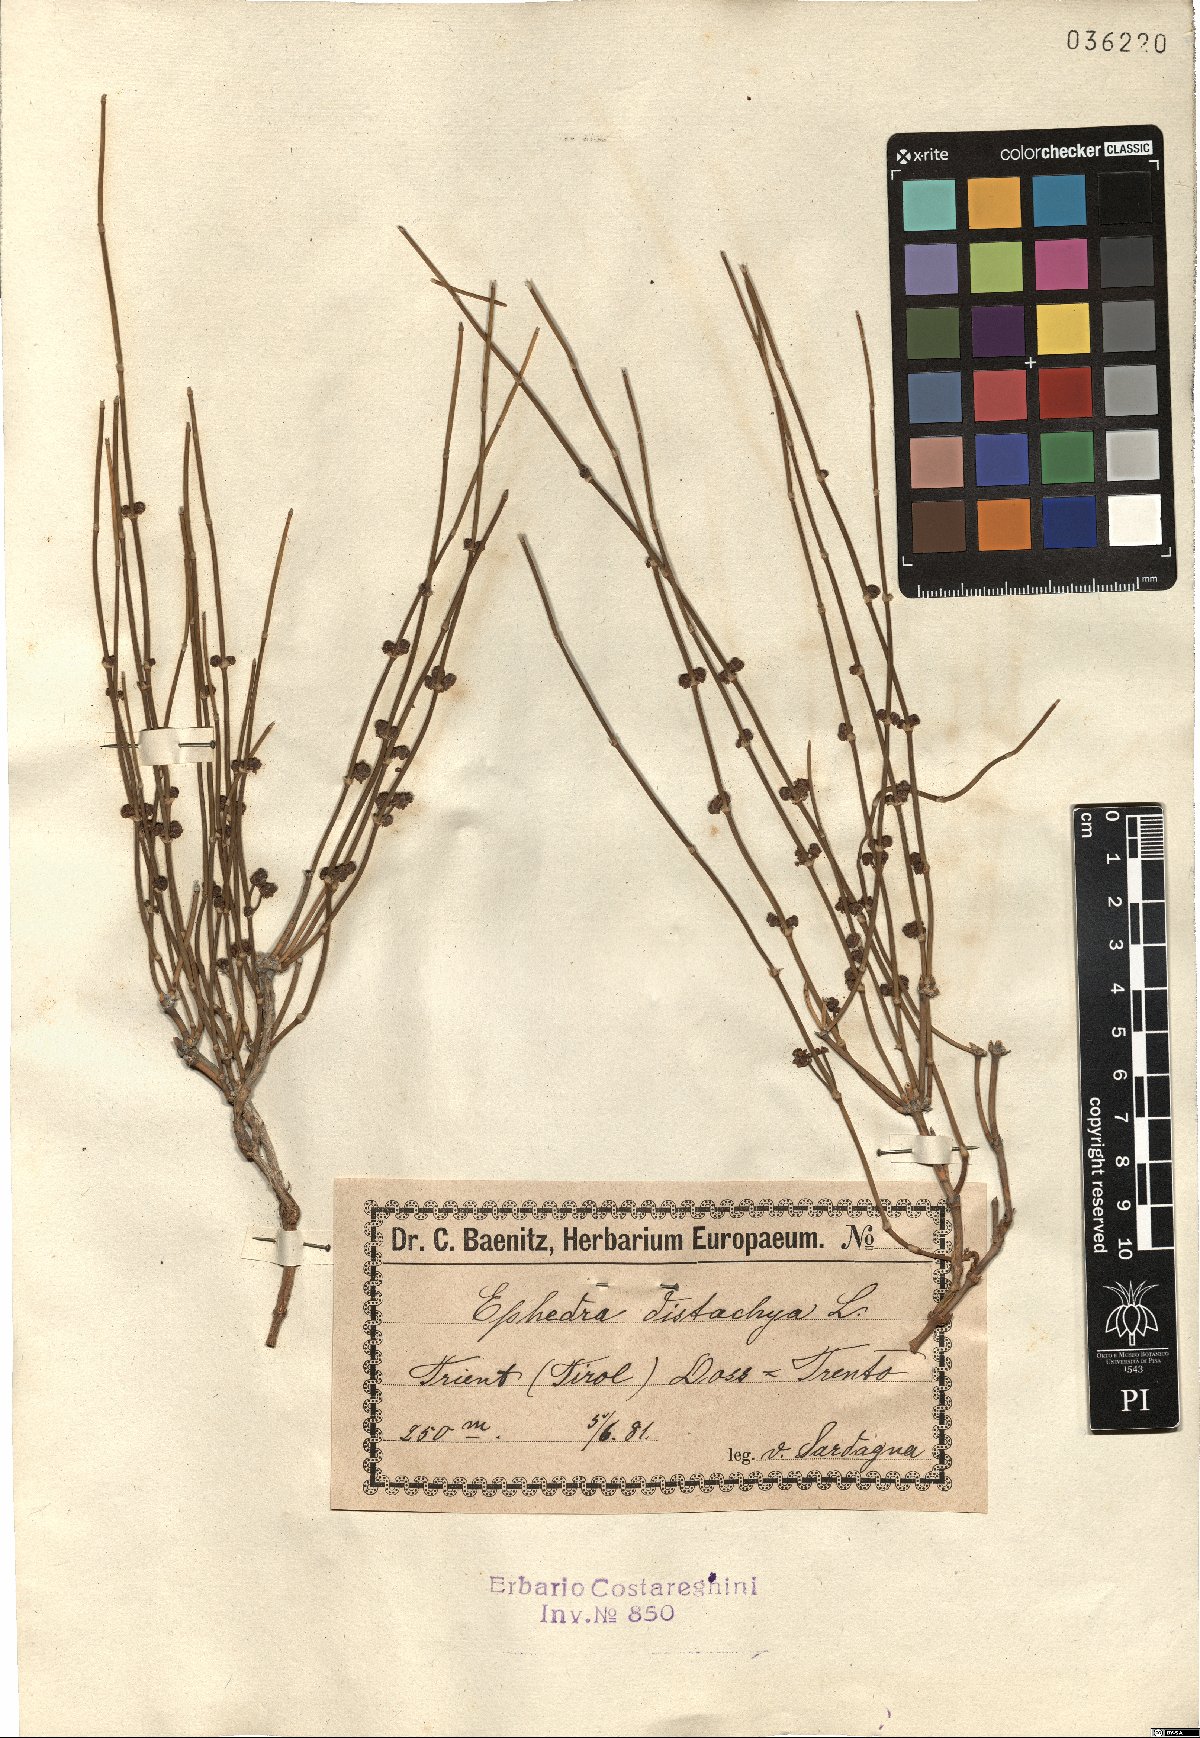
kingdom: Plantae
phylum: Tracheophyta
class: Gnetopsida
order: Ephedrales
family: Ephedraceae
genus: Ephedra
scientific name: Ephedra distachya
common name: Sea grape
